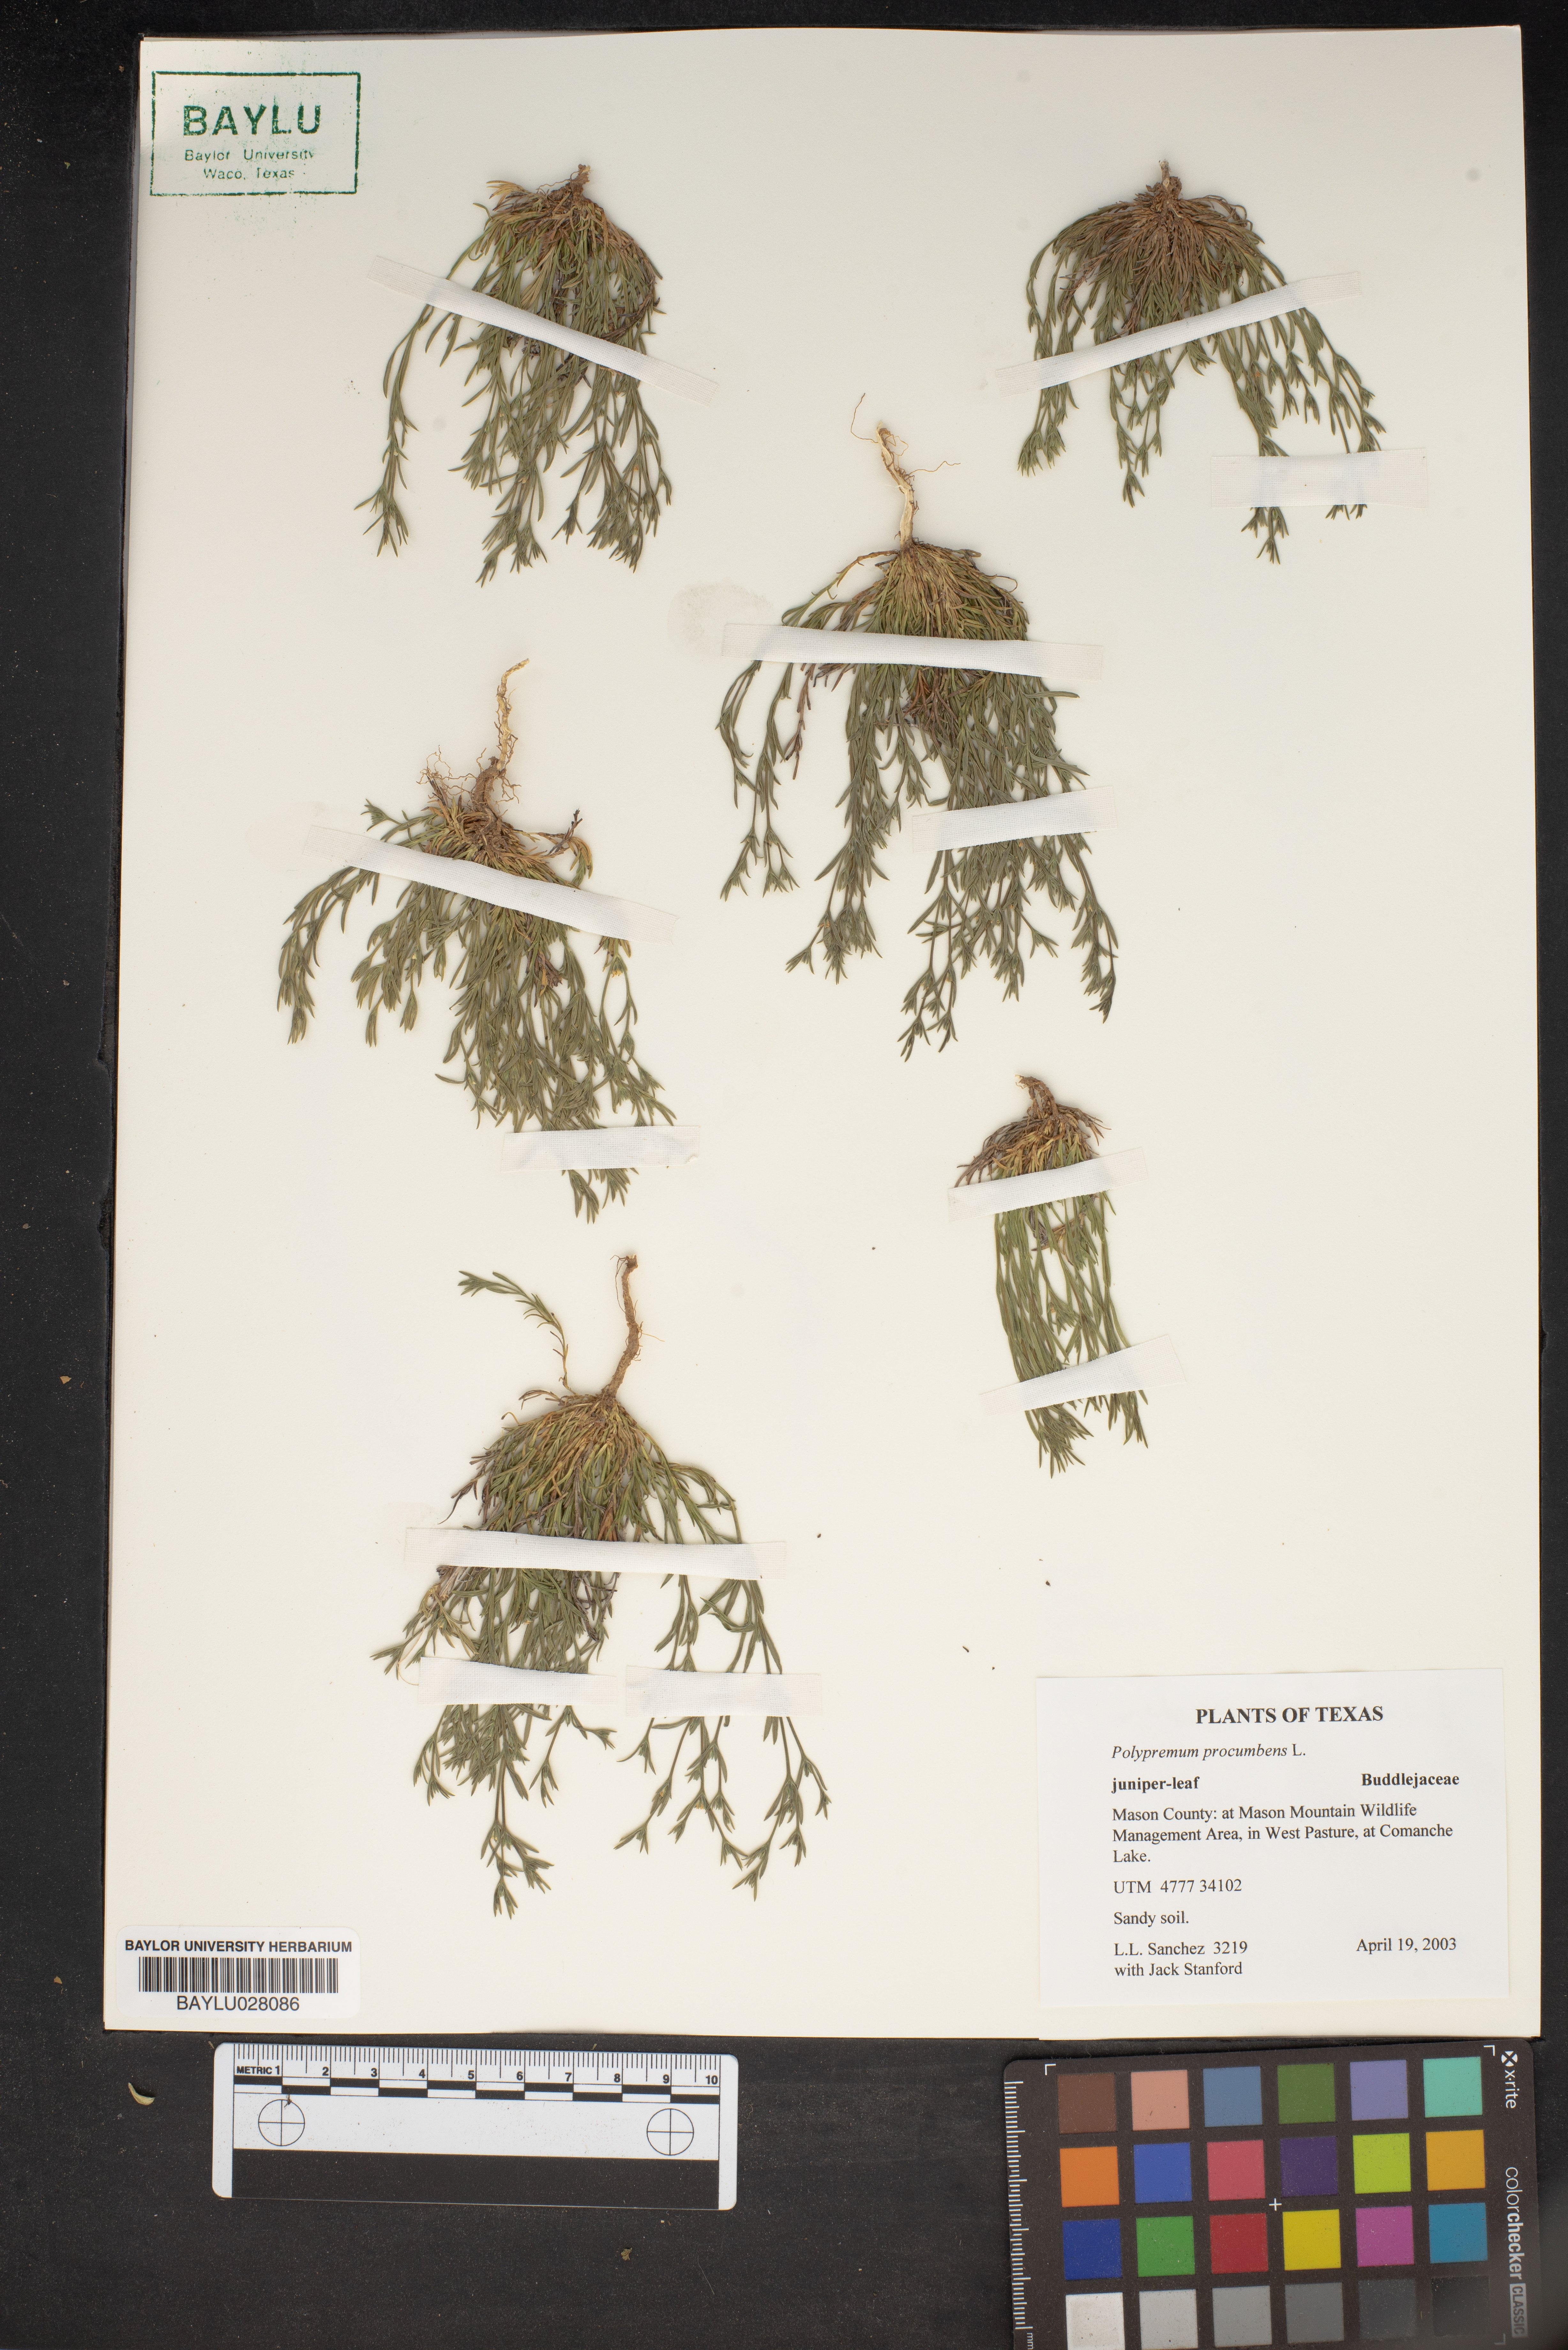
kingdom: Plantae
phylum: Tracheophyta
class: Magnoliopsida
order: Lamiales
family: Tetrachondraceae
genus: Polypremum
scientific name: Polypremum procumbens
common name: Juniper-leaf
